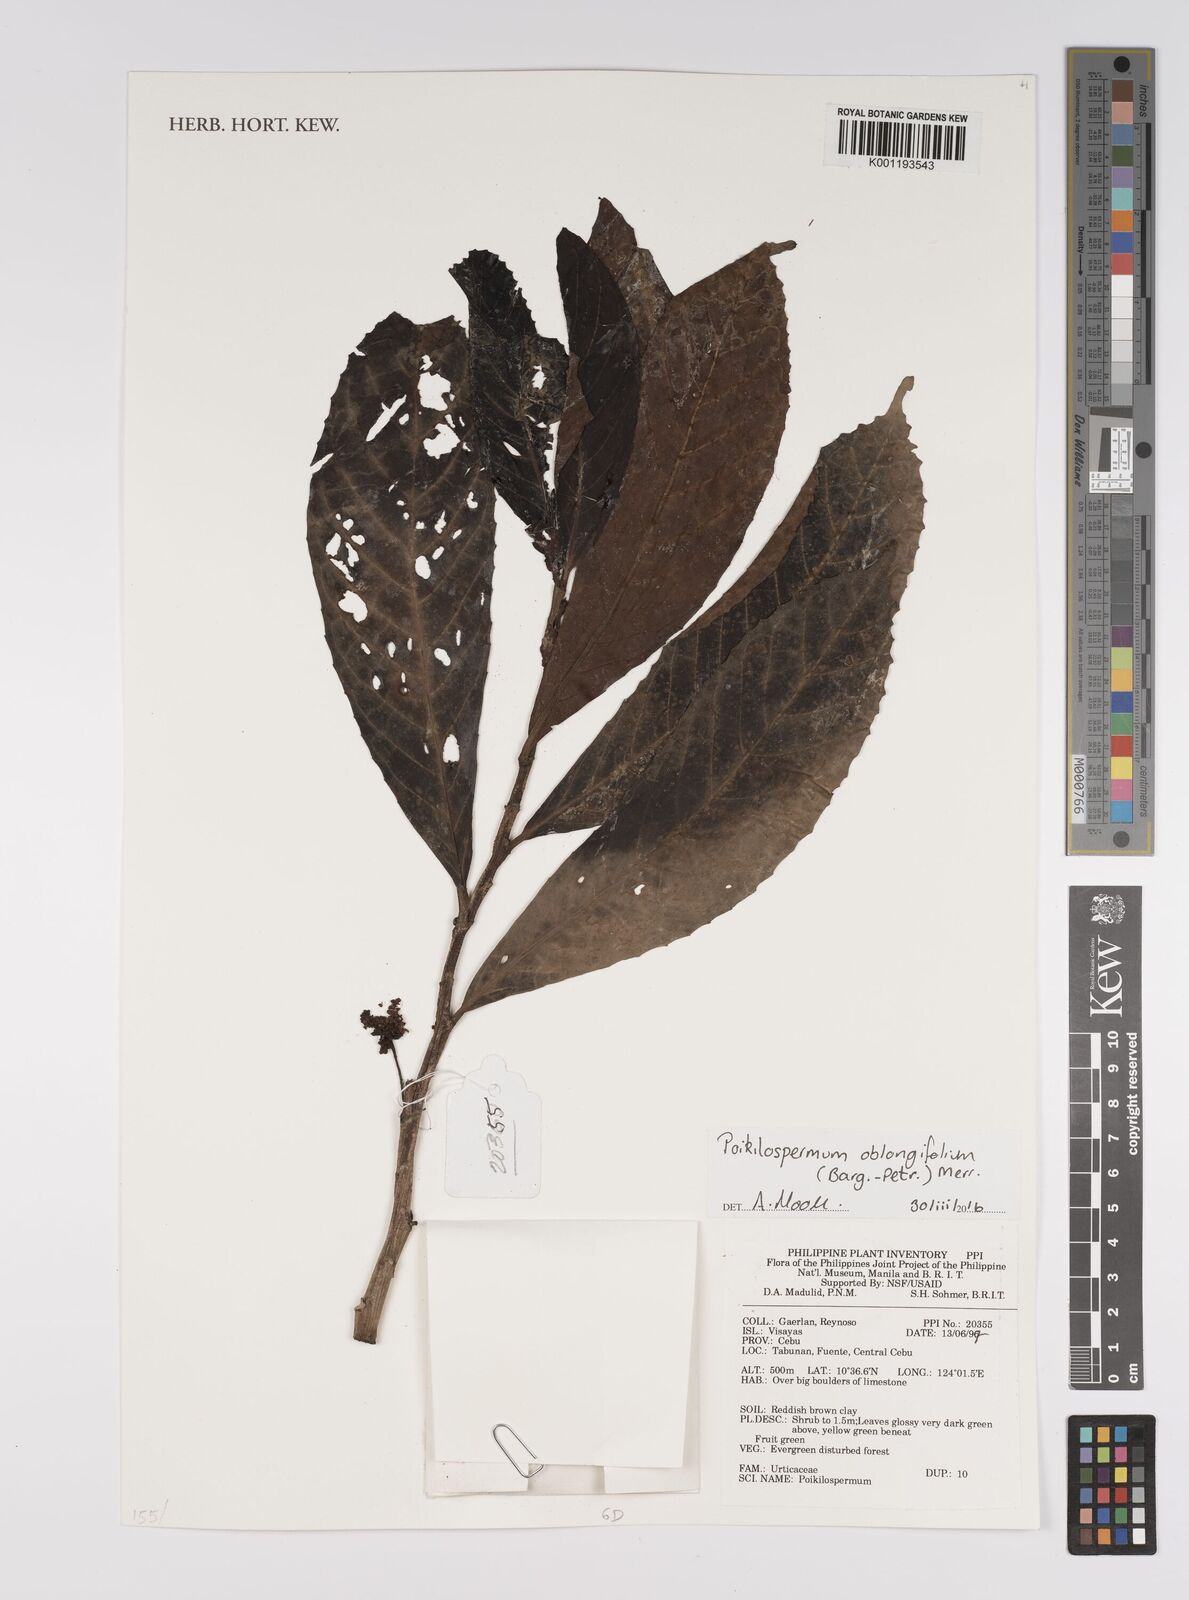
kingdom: Plantae
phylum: Tracheophyta
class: Magnoliopsida
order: Rosales
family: Urticaceae
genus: Poikilospermum
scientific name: Poikilospermum oblongifolium
